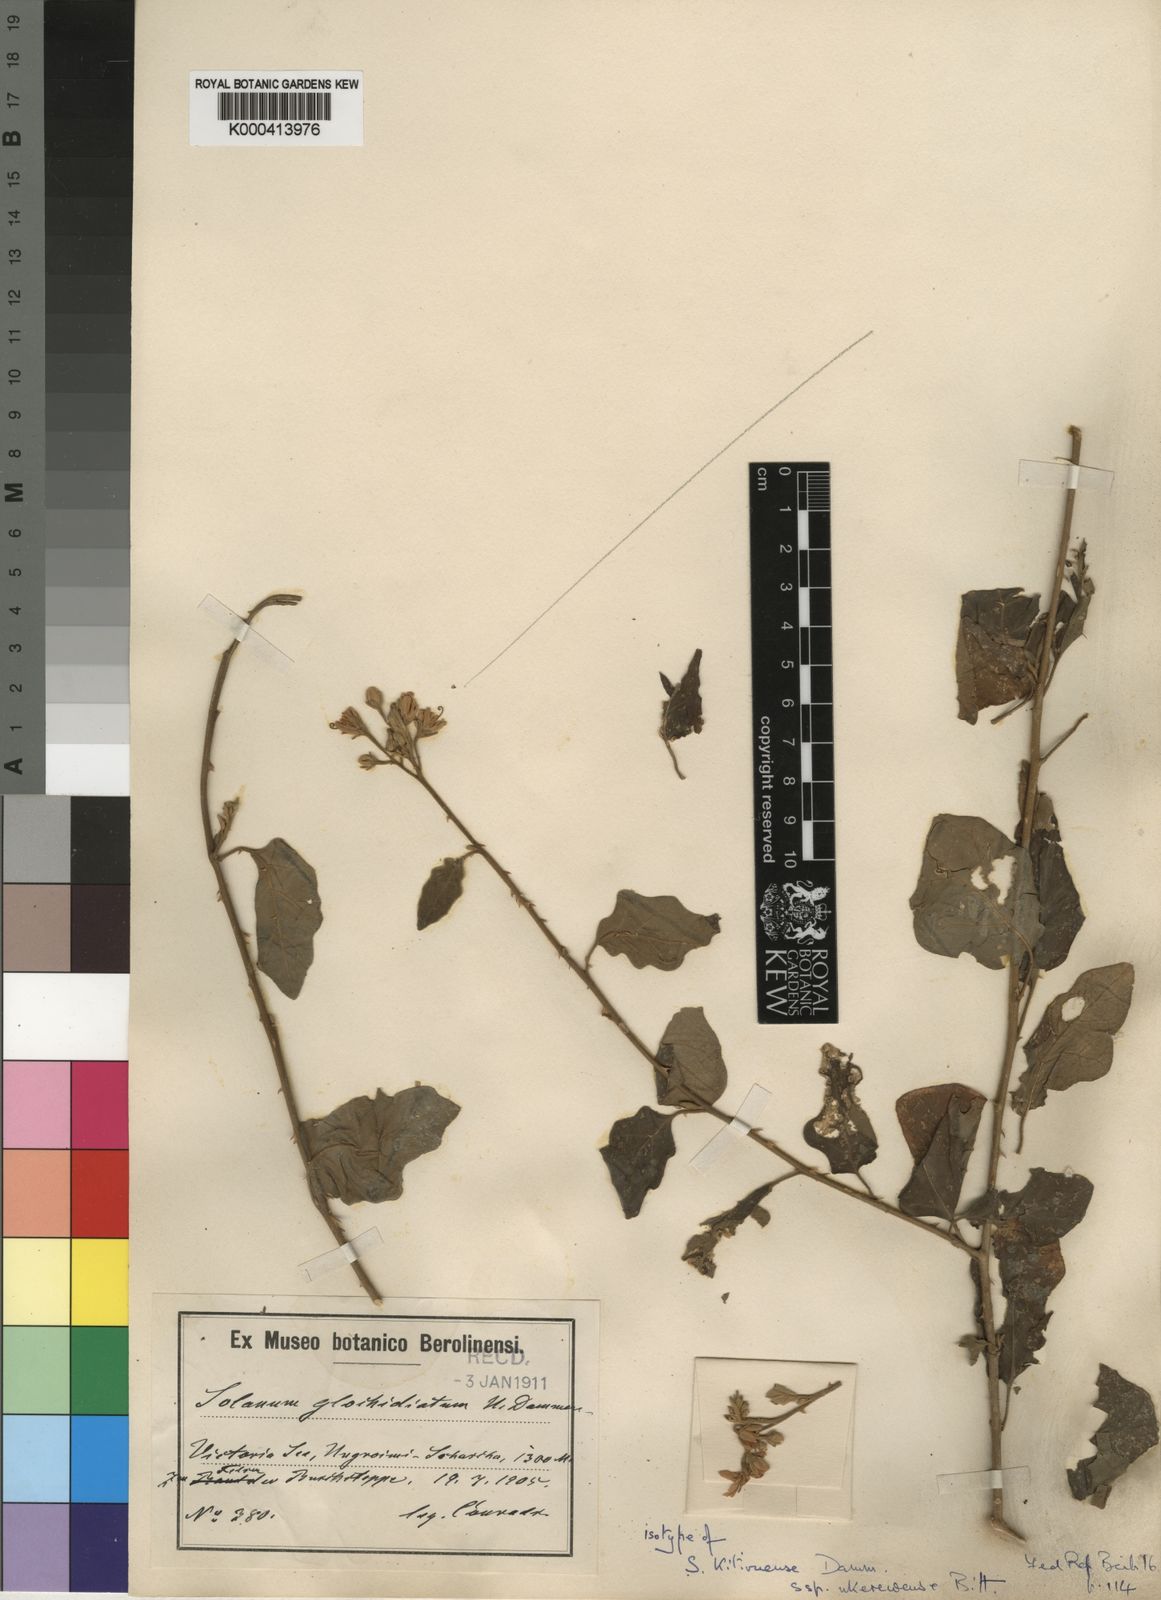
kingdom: Plantae
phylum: Tracheophyta
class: Magnoliopsida
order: Solanales
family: Solanaceae
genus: Solanum
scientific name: Solanum stipitatostellatum
